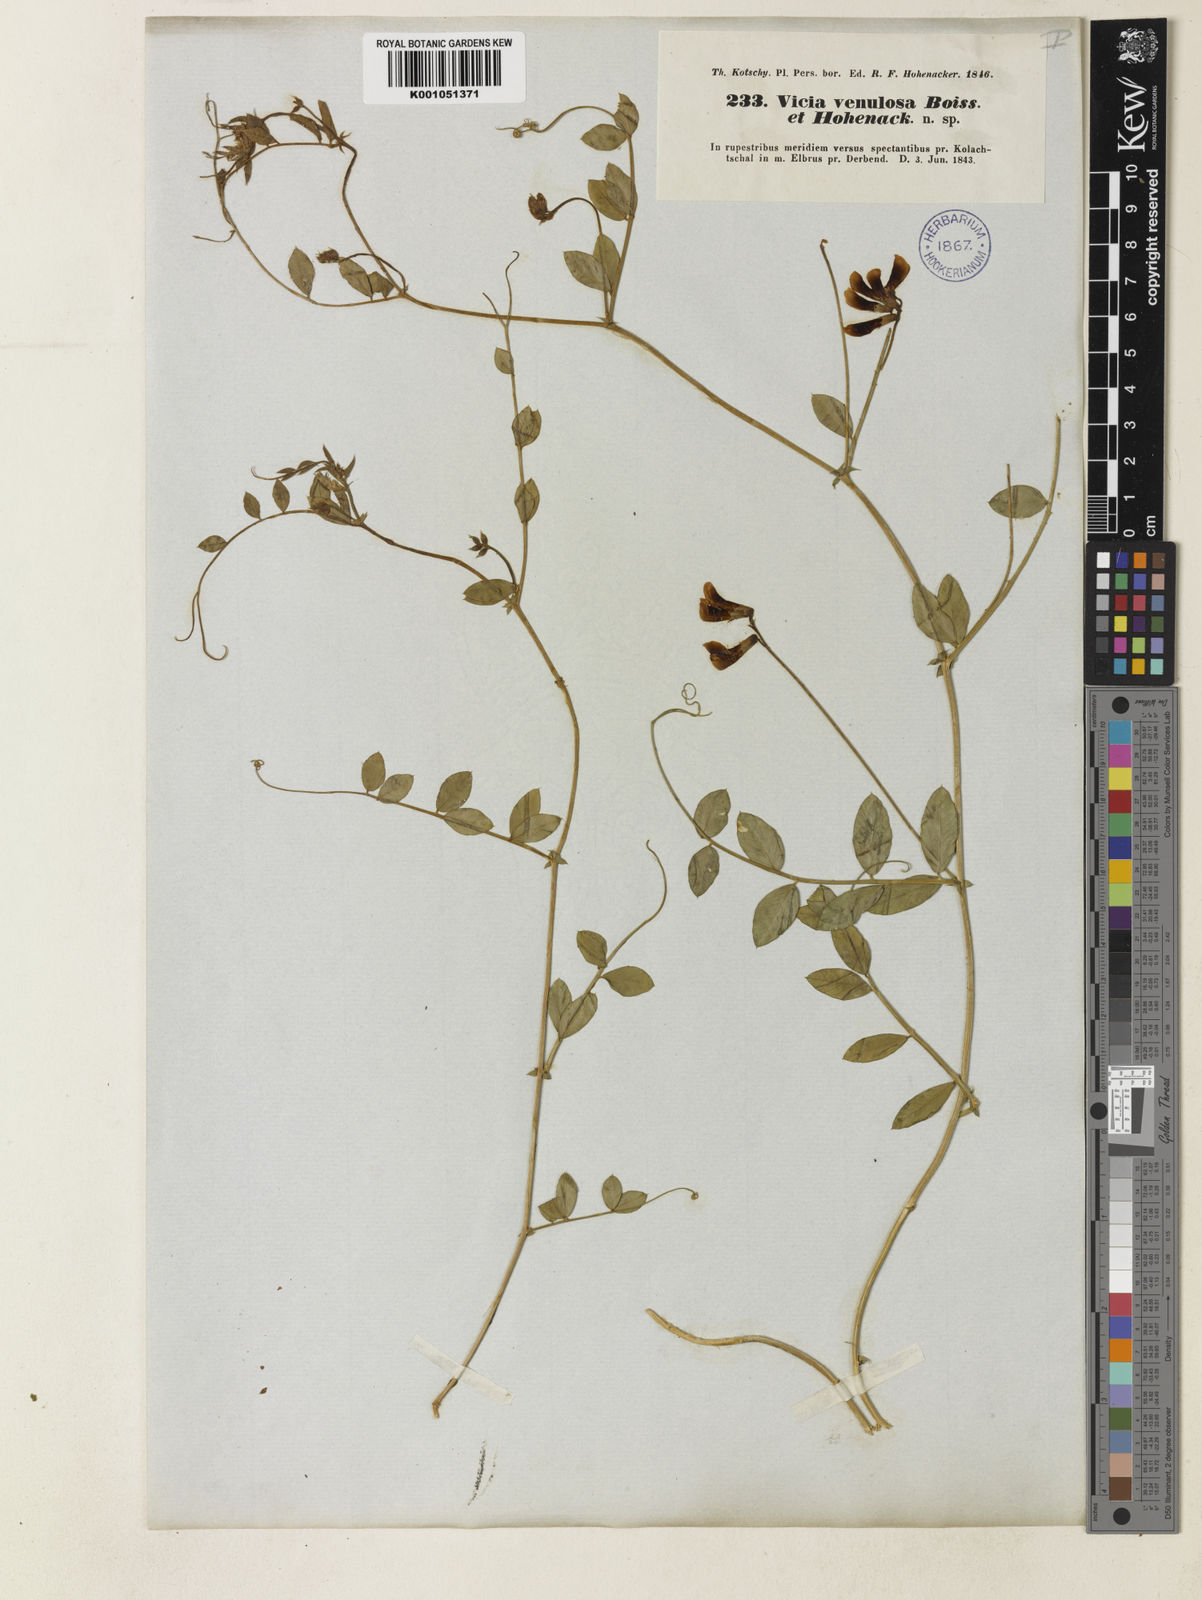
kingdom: Plantae
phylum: Tracheophyta
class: Magnoliopsida
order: Fabales
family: Fabaceae
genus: Vicia
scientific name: Vicia venulosa
